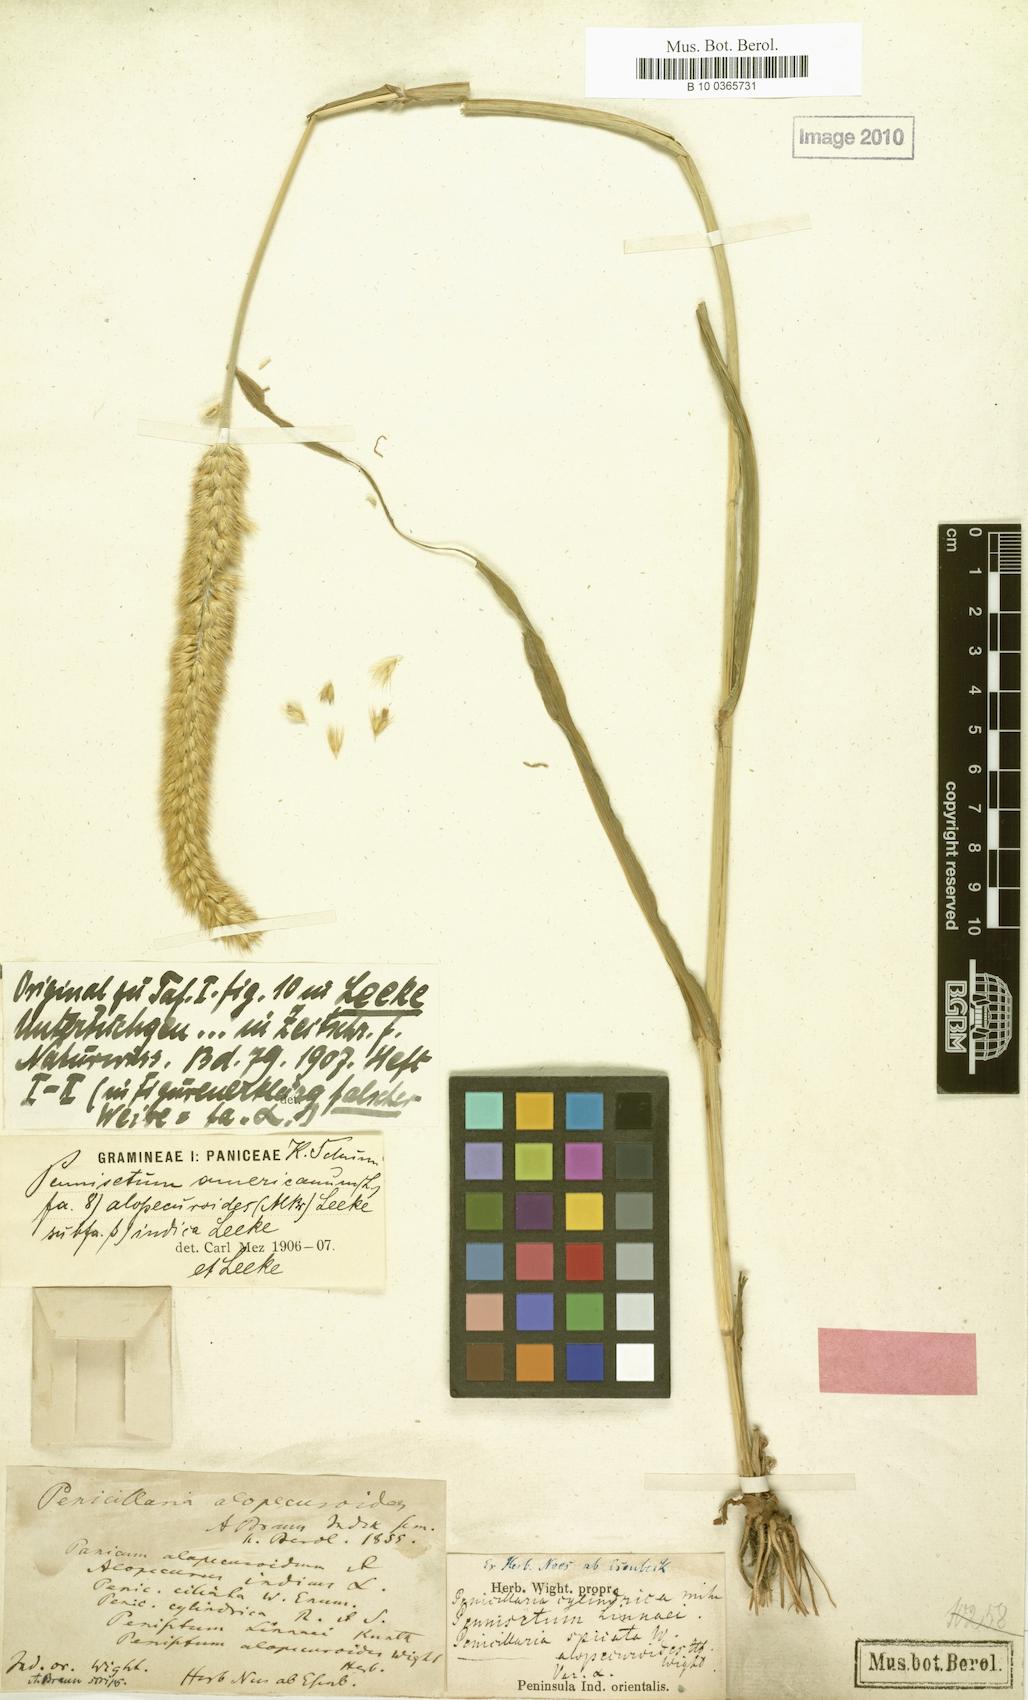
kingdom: Plantae
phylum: Tracheophyta
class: Liliopsida
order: Poales
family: Poaceae
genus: Cenchrus
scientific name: Cenchrus alopecuroides
